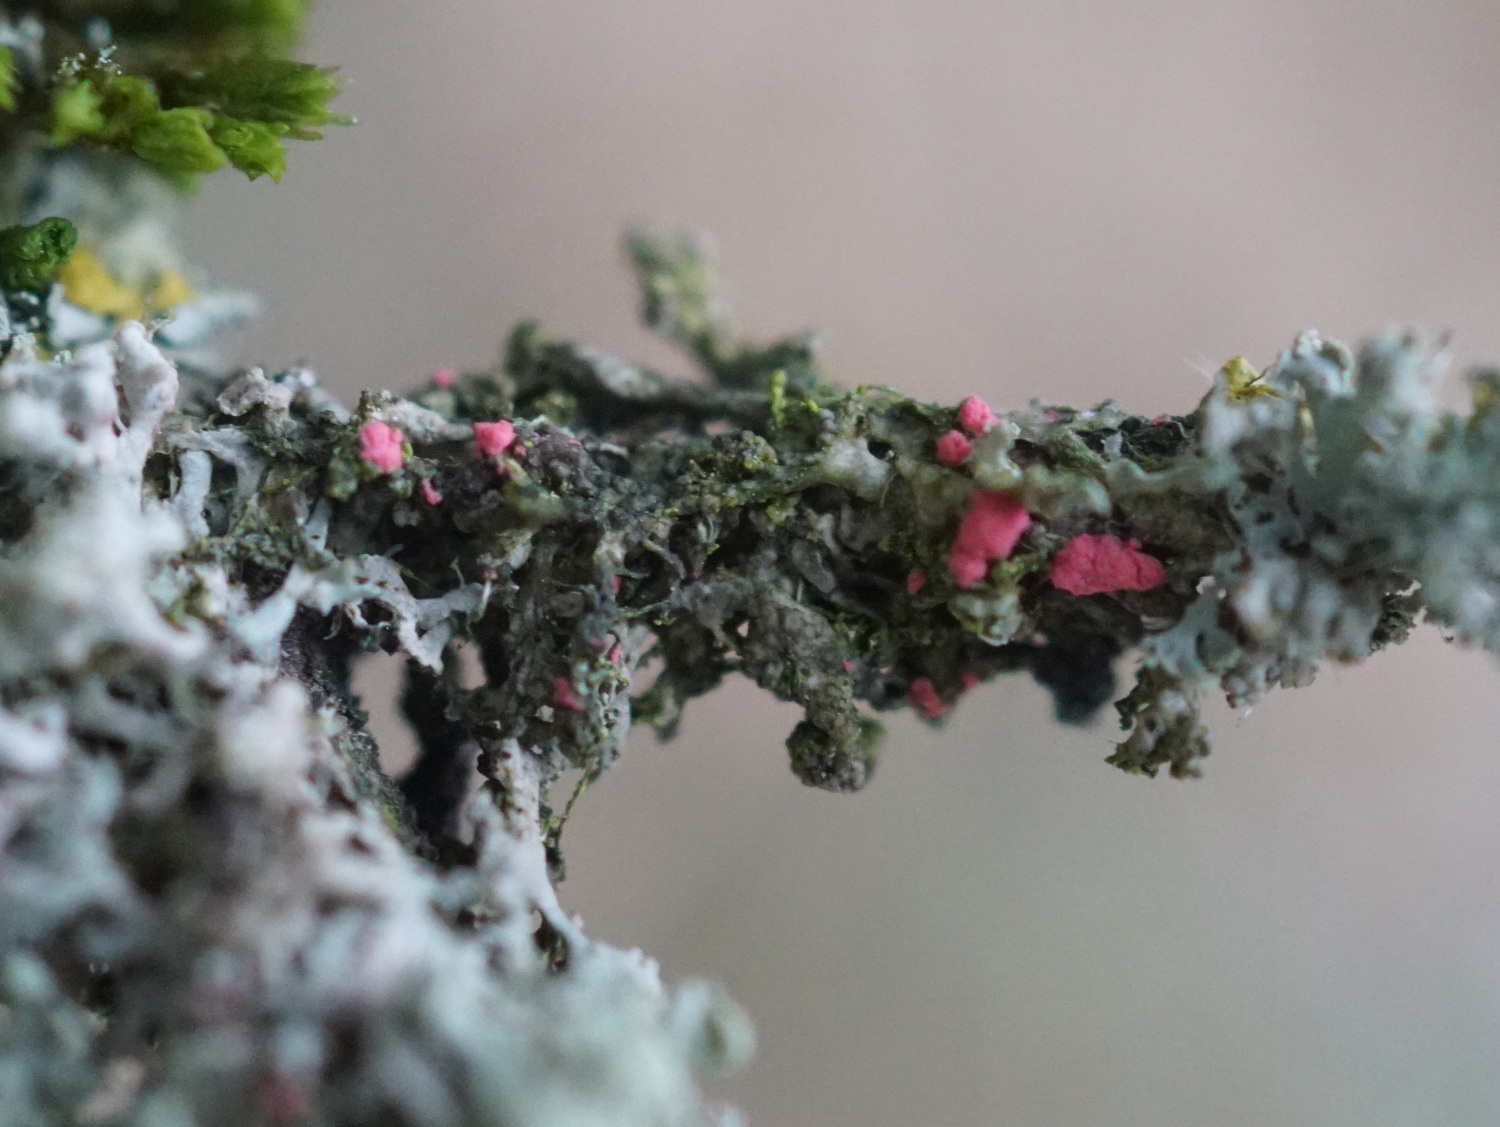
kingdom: Fungi
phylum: Ascomycota
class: Sordariomycetes
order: Hypocreales
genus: Illosporiopsis
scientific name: Illosporiopsis christiansenii
